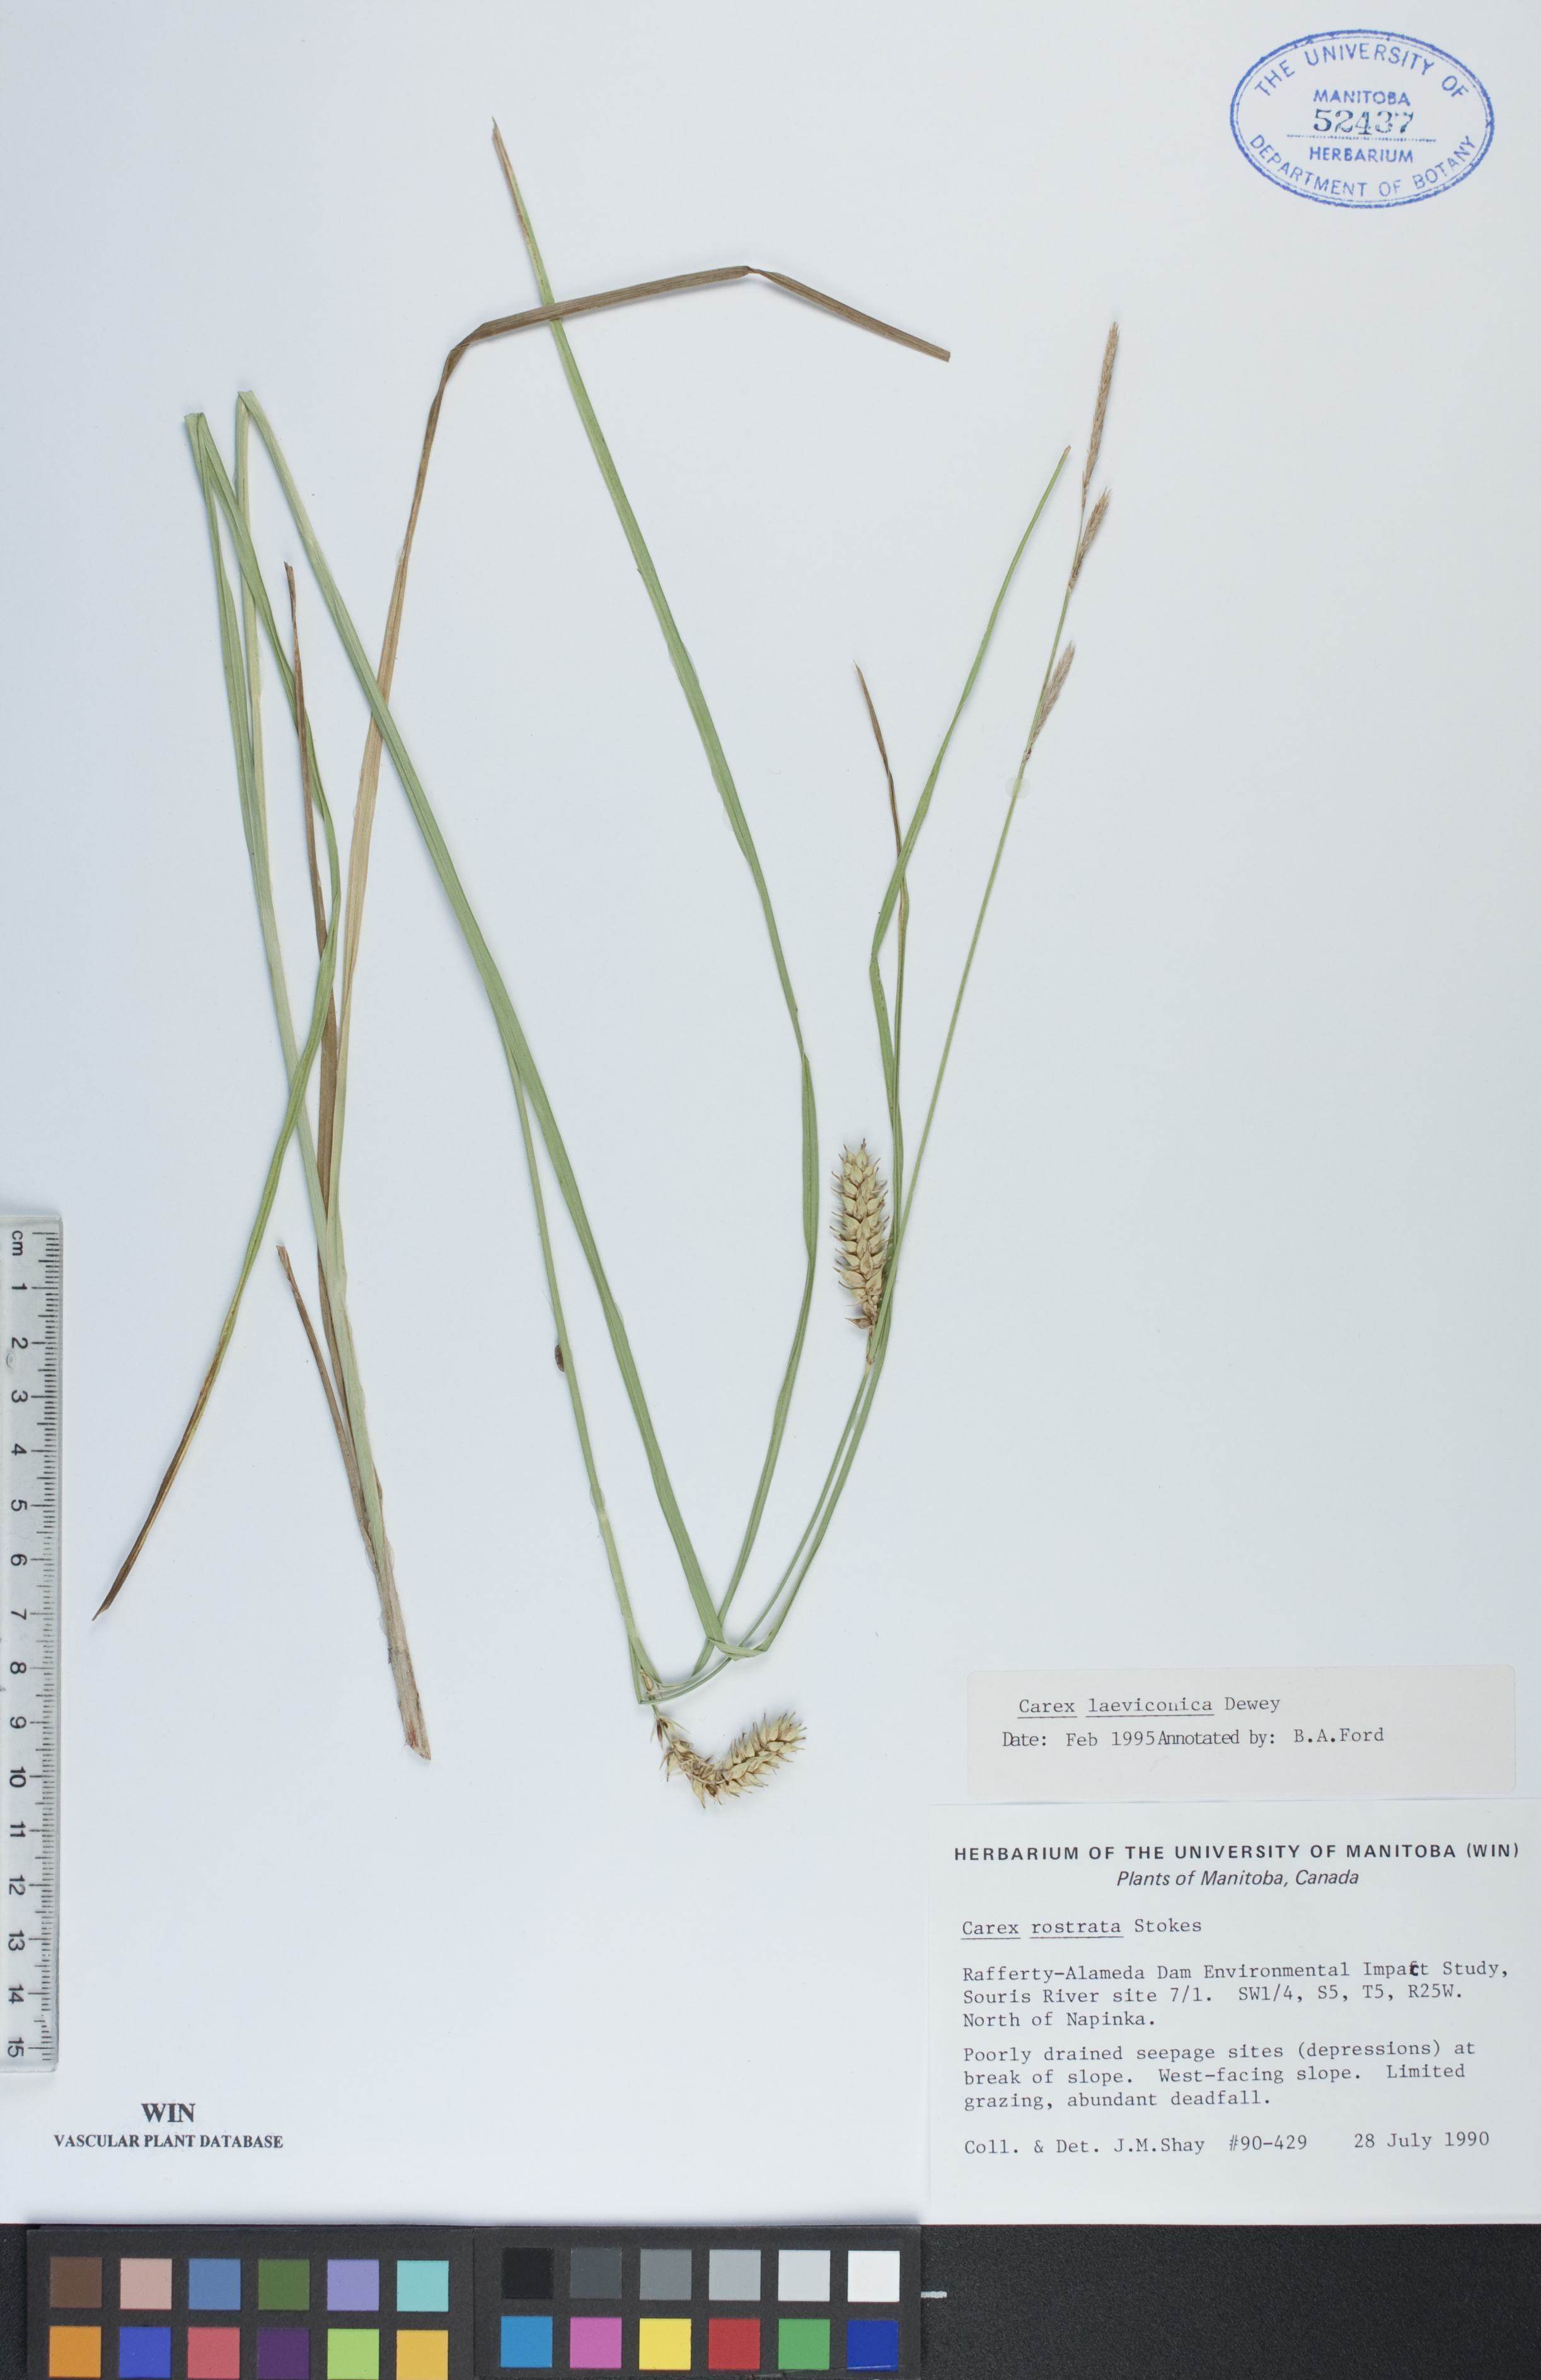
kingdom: Plantae
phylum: Tracheophyta
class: Liliopsida
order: Poales
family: Cyperaceae
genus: Carex
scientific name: Carex laeviconica
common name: Plains slough sedge
